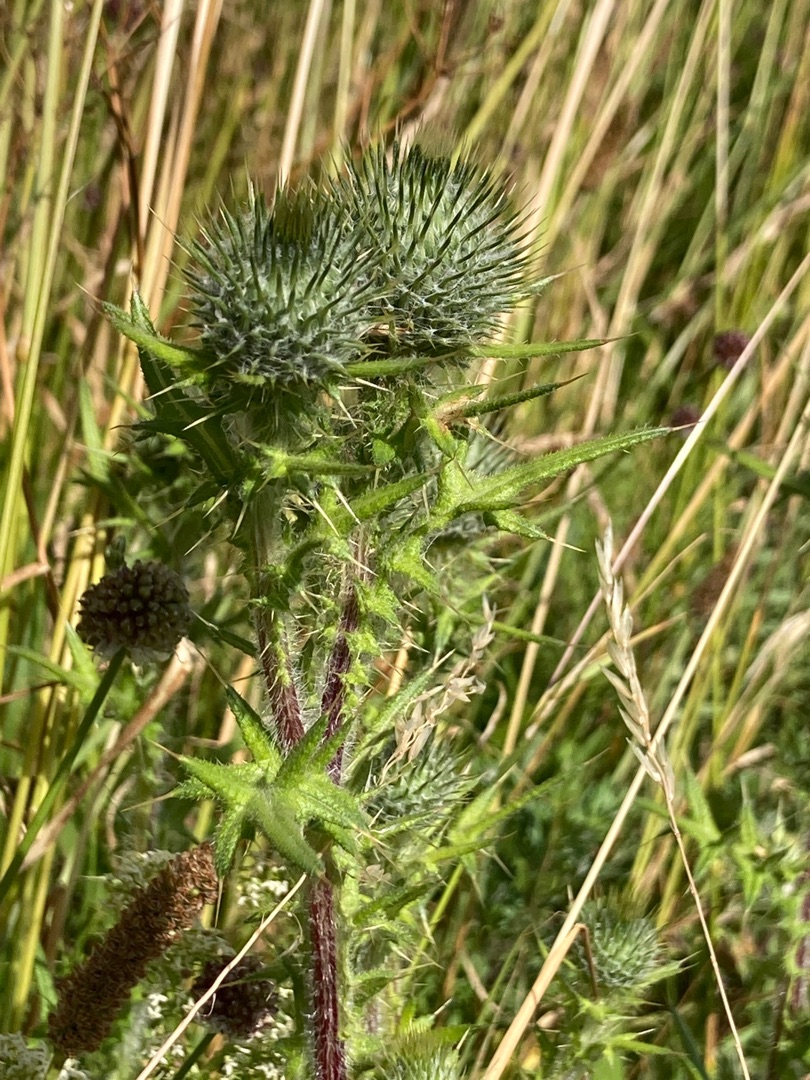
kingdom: Plantae
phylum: Tracheophyta
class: Magnoliopsida
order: Asterales
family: Asteraceae
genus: Cirsium
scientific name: Cirsium vulgare
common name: Horse-tidsel
